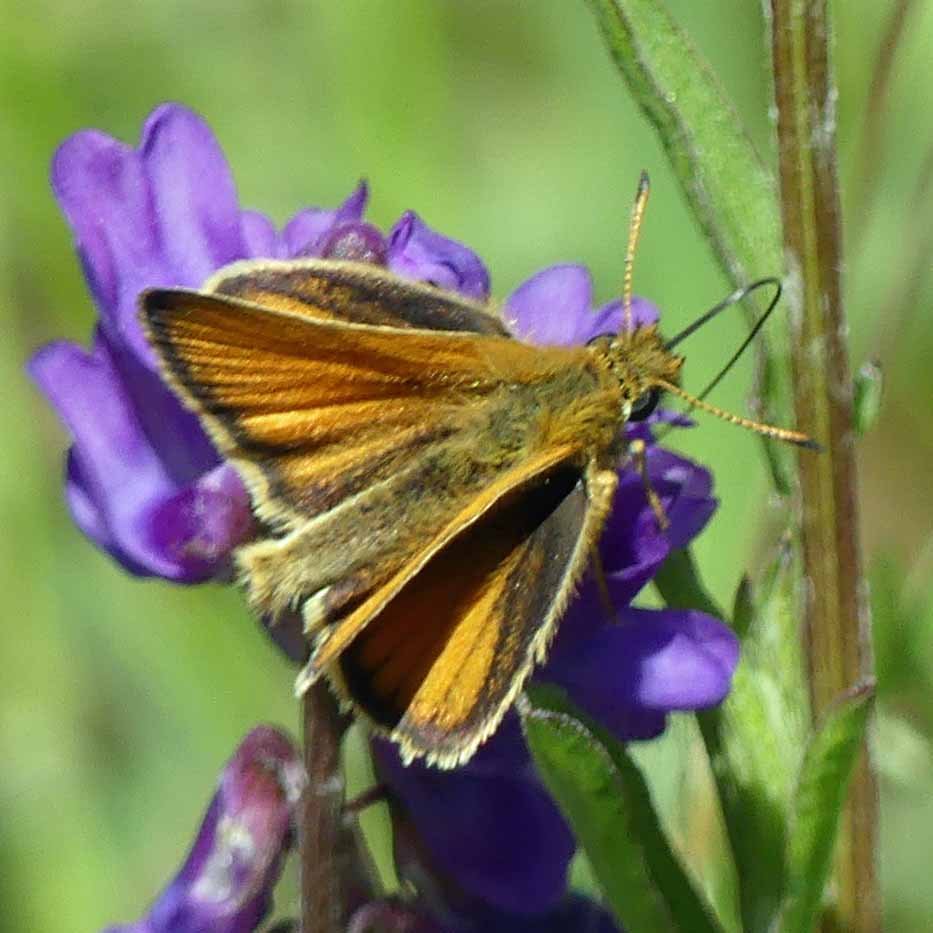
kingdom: Animalia
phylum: Arthropoda
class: Insecta
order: Lepidoptera
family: Hesperiidae
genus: Thymelicus
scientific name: Thymelicus lineola
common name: European Skipper
